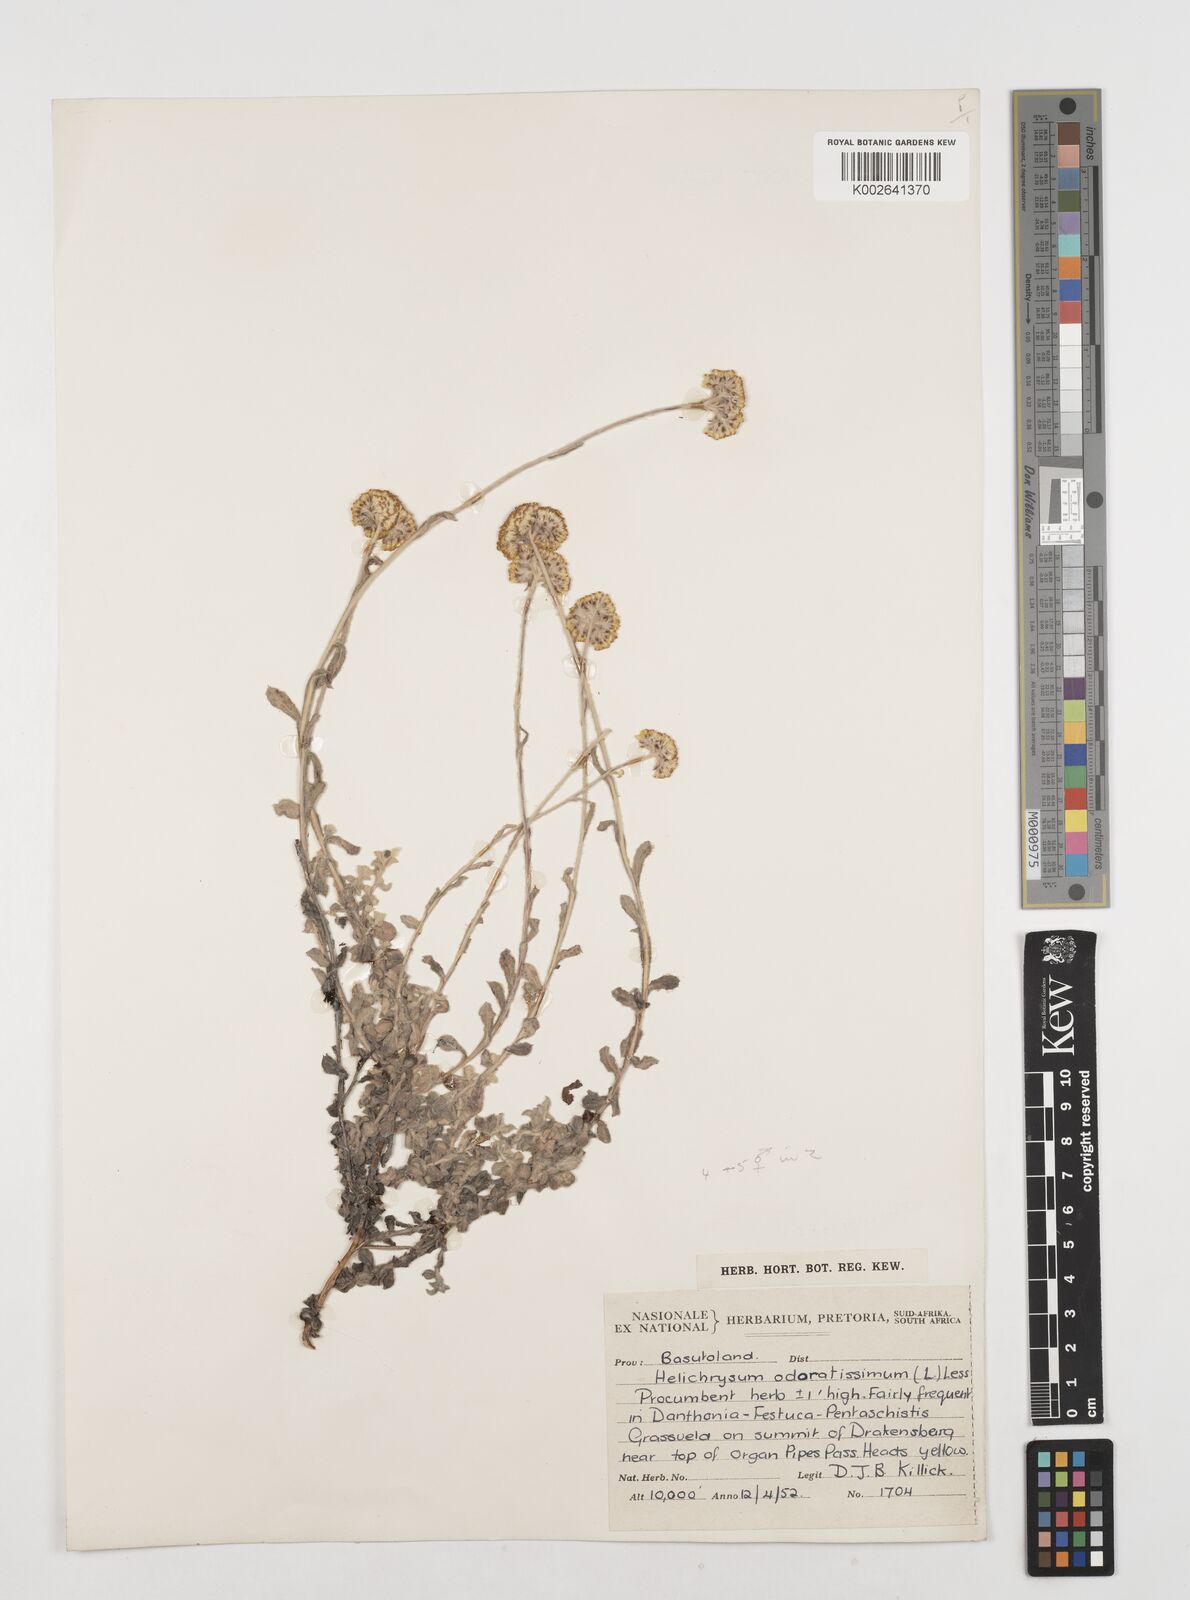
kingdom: Plantae
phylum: Tracheophyta
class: Magnoliopsida
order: Asterales
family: Asteraceae
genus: Helichrysum
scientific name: Helichrysum odoratissimum
